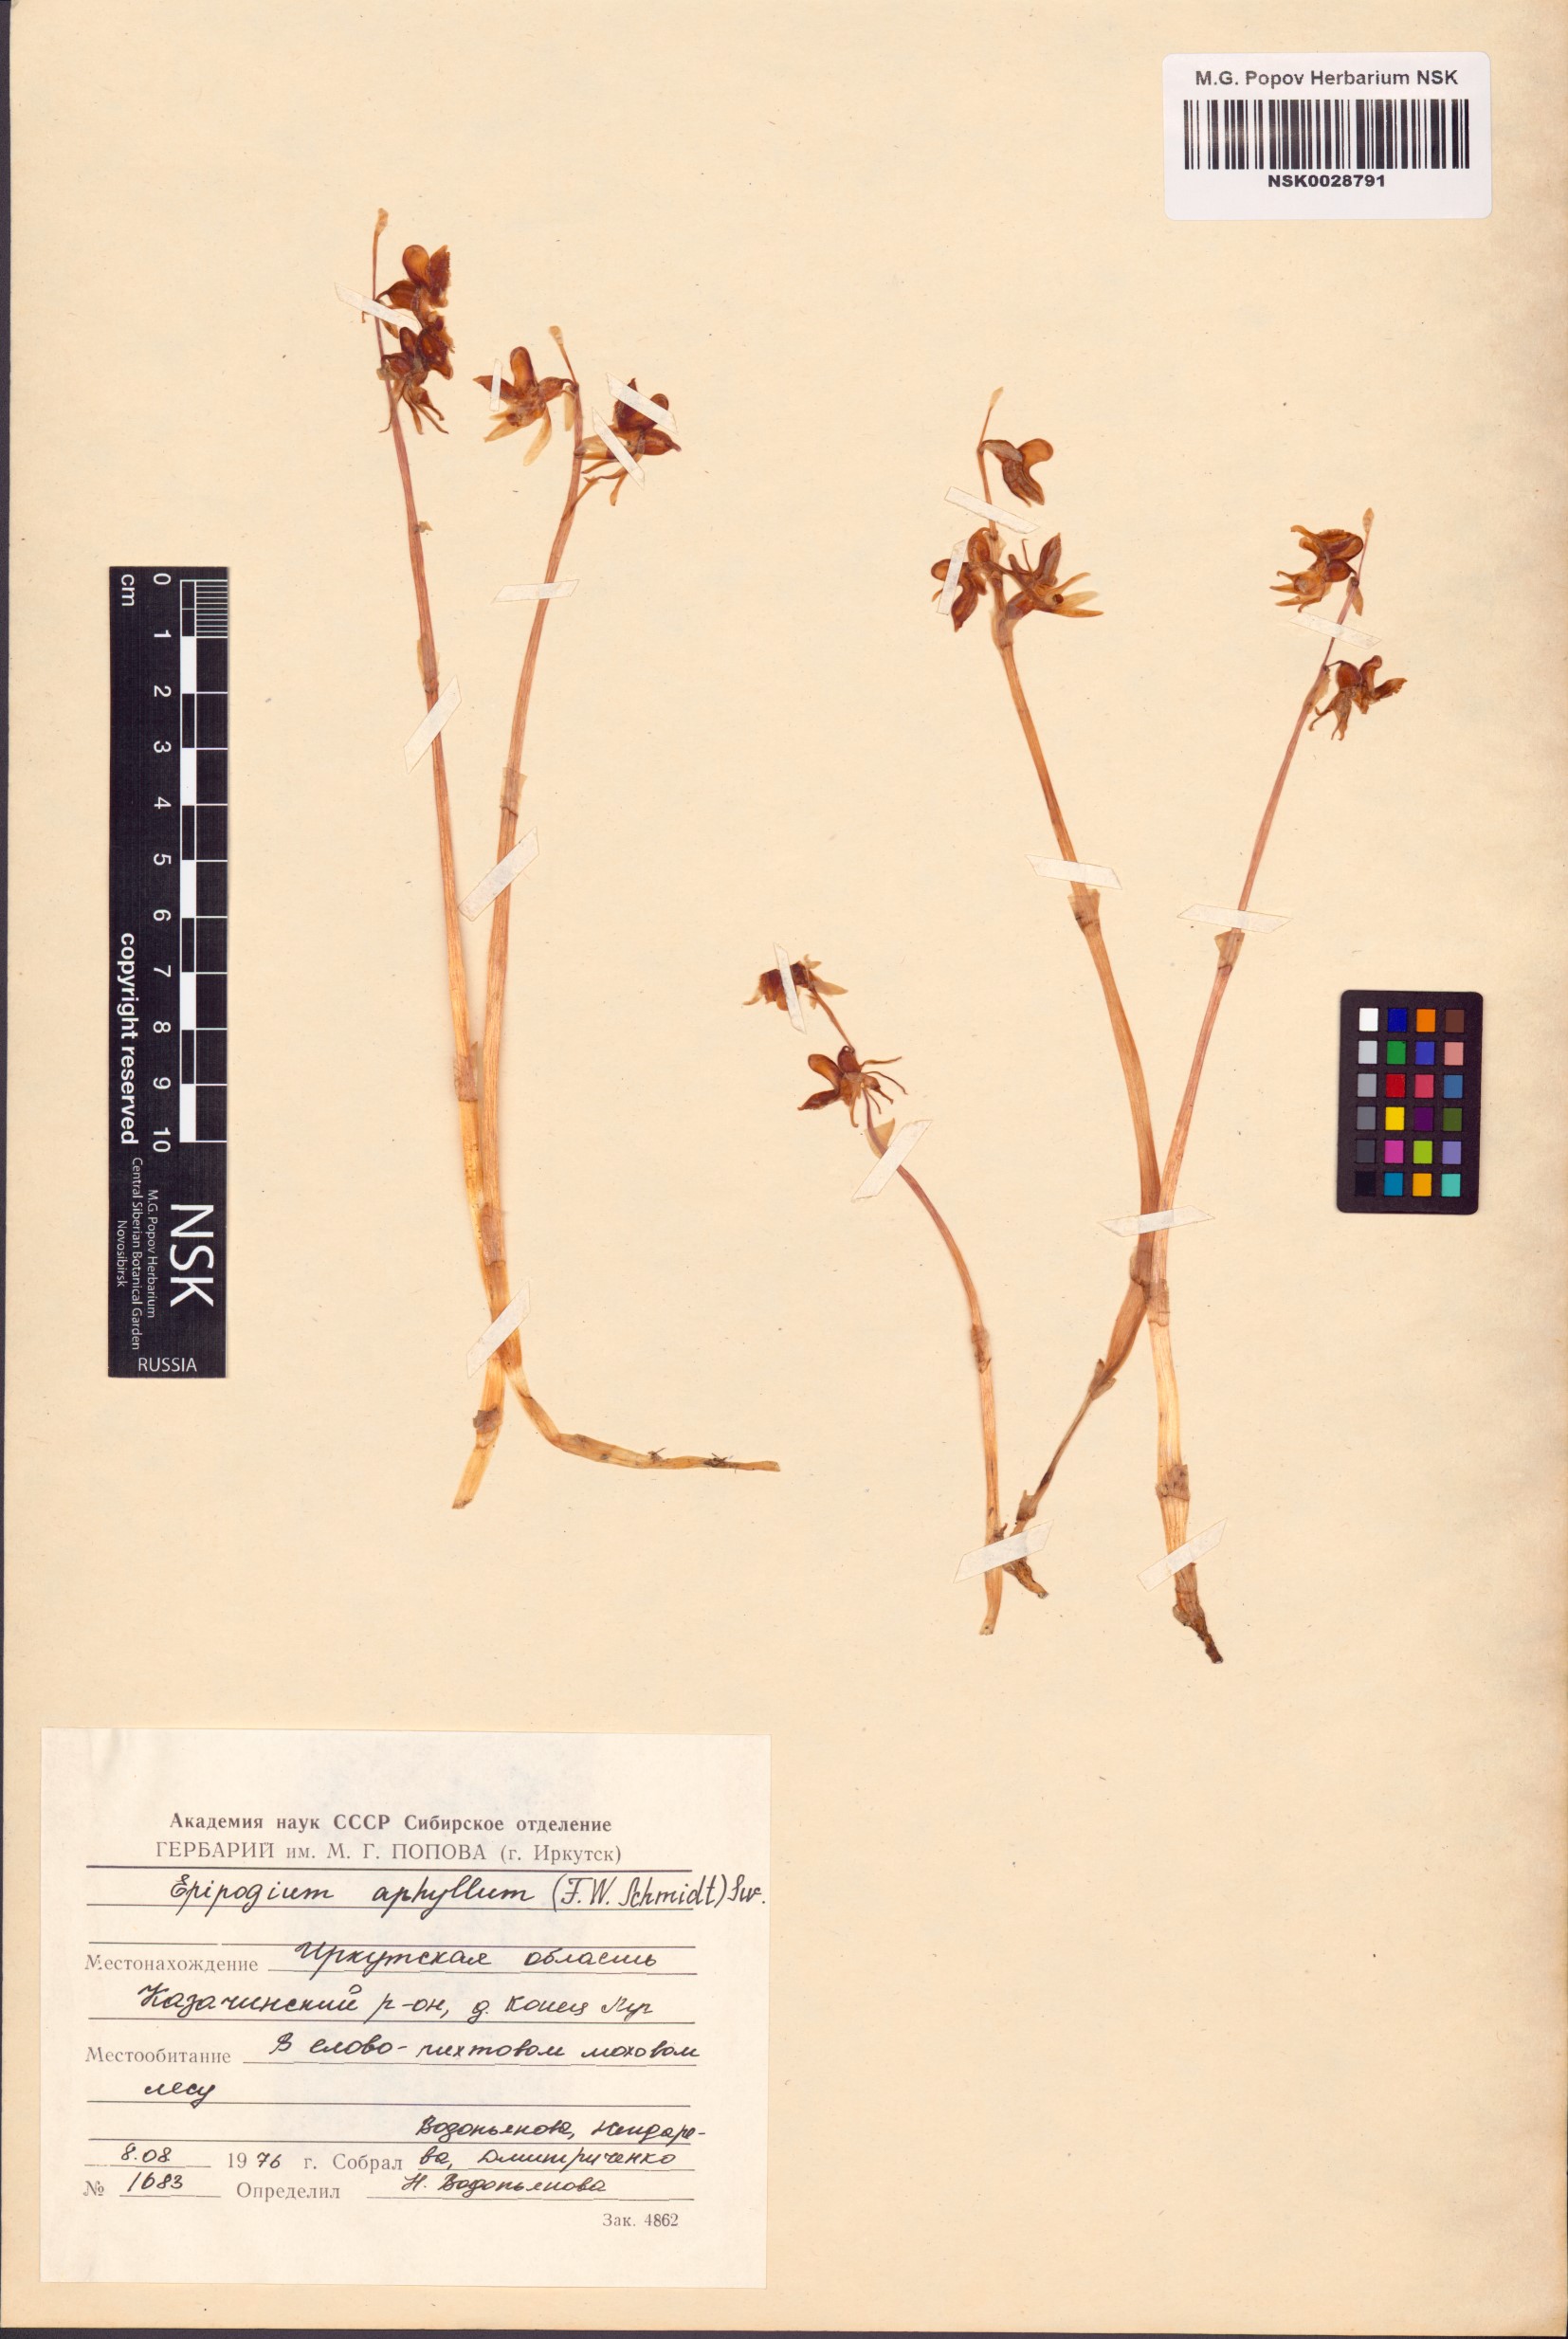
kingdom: Plantae
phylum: Tracheophyta
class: Liliopsida
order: Asparagales
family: Orchidaceae
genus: Epipogium
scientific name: Epipogium aphyllum
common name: Ghost orchid
